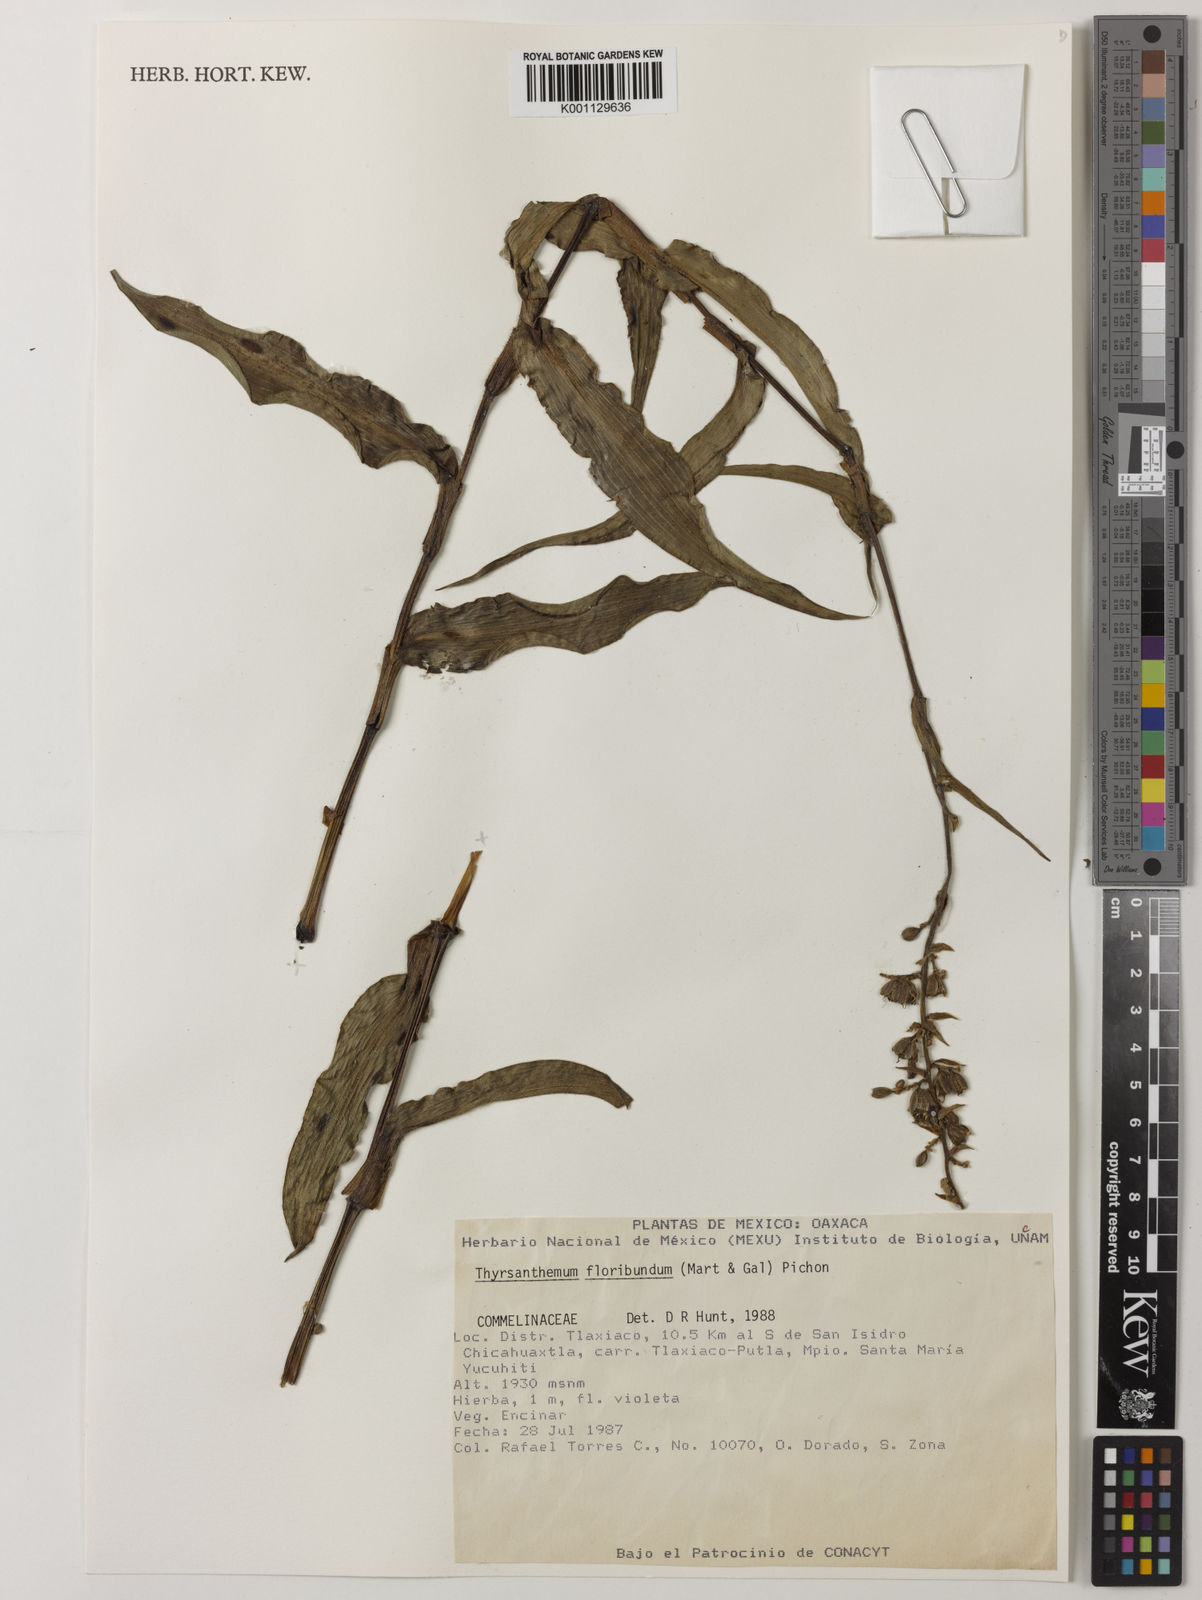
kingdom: Plantae
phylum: Tracheophyta
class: Liliopsida
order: Commelinales
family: Commelinaceae
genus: Thyrsanthemum
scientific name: Thyrsanthemum floribundum
